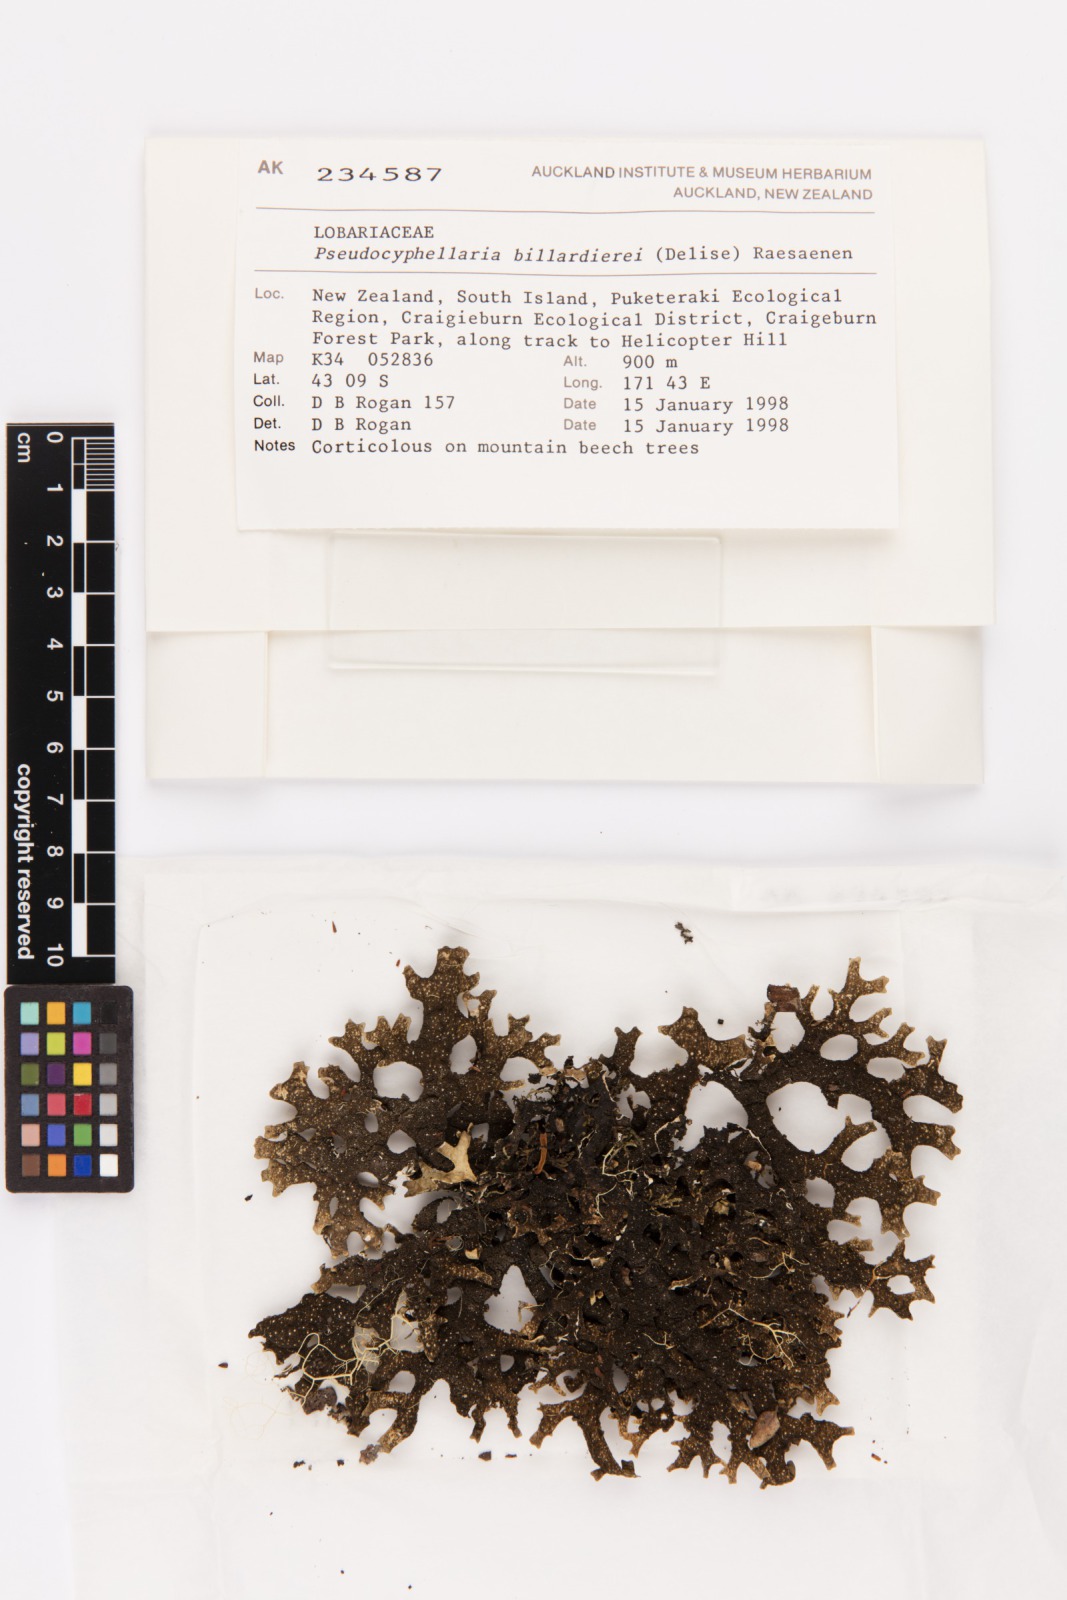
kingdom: Fungi
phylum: Ascomycota
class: Lecanoromycetes
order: Peltigerales
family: Lobariaceae
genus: Pseudocyphellaria
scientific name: Pseudocyphellaria billardierei
